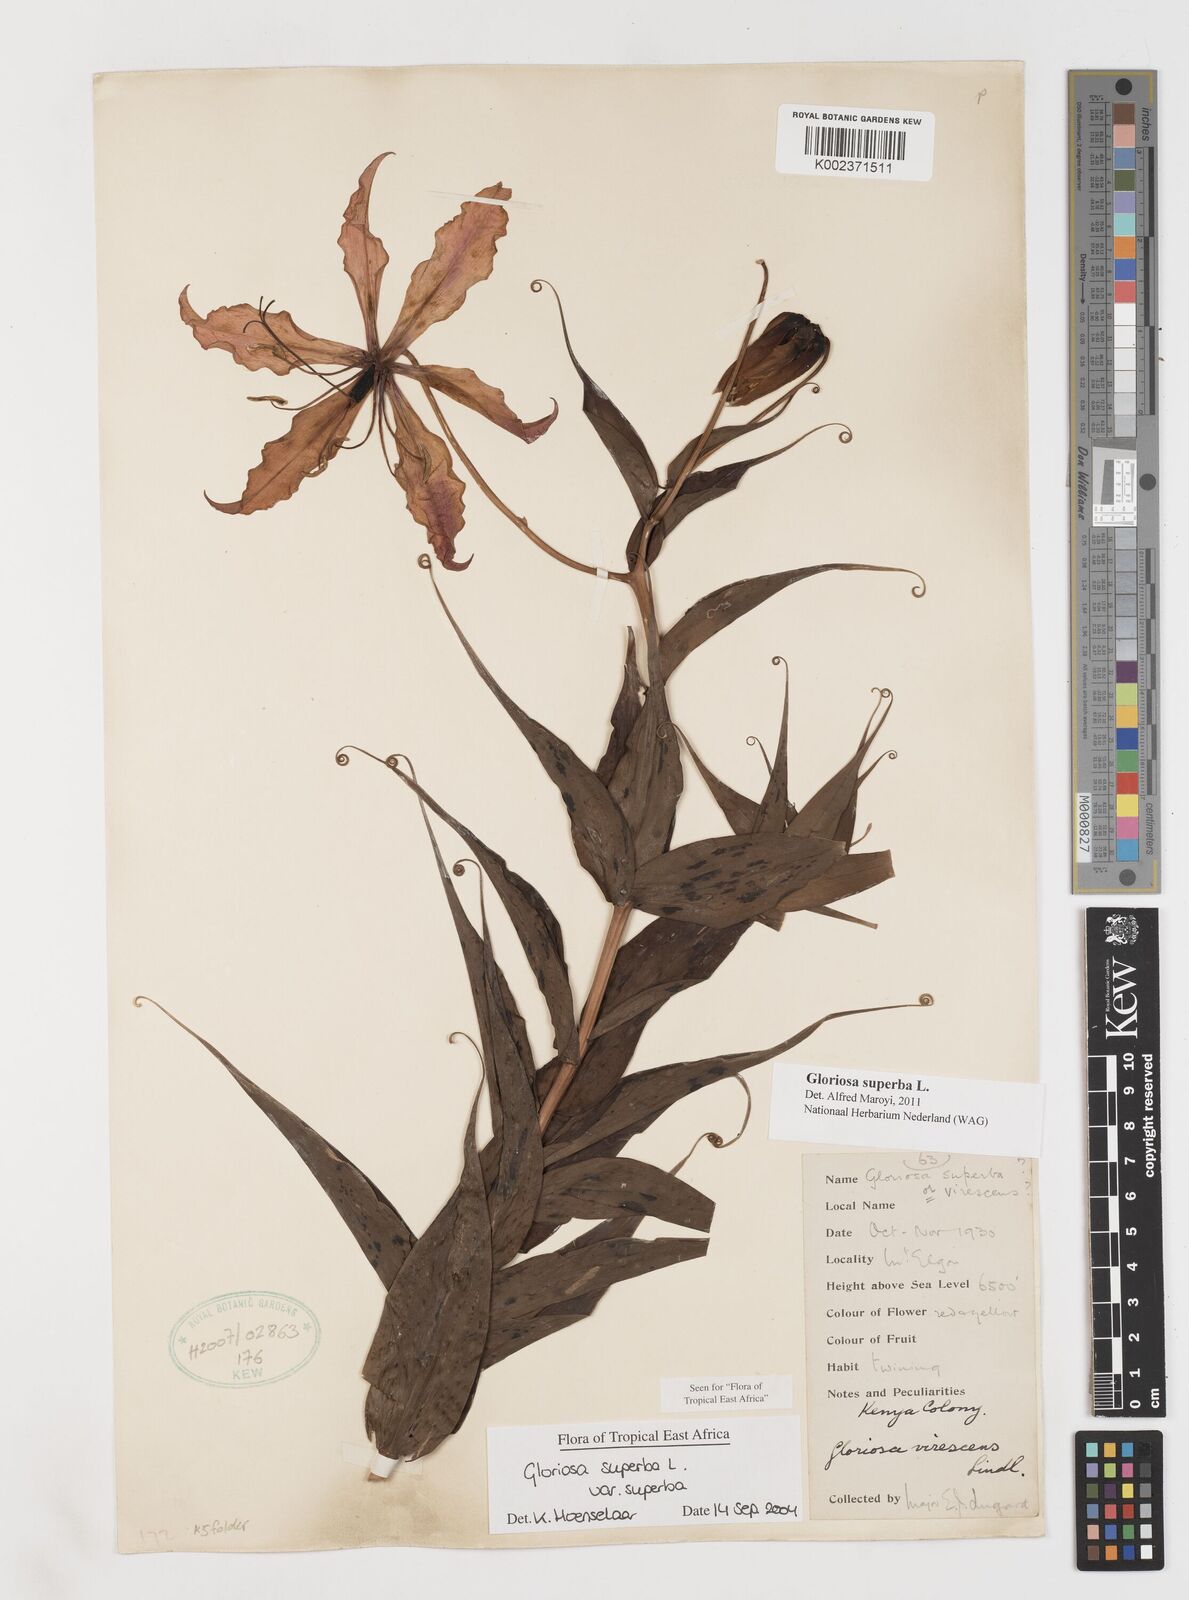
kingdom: Plantae
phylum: Tracheophyta
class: Liliopsida
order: Liliales
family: Colchicaceae
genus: Gloriosa
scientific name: Gloriosa simplex
